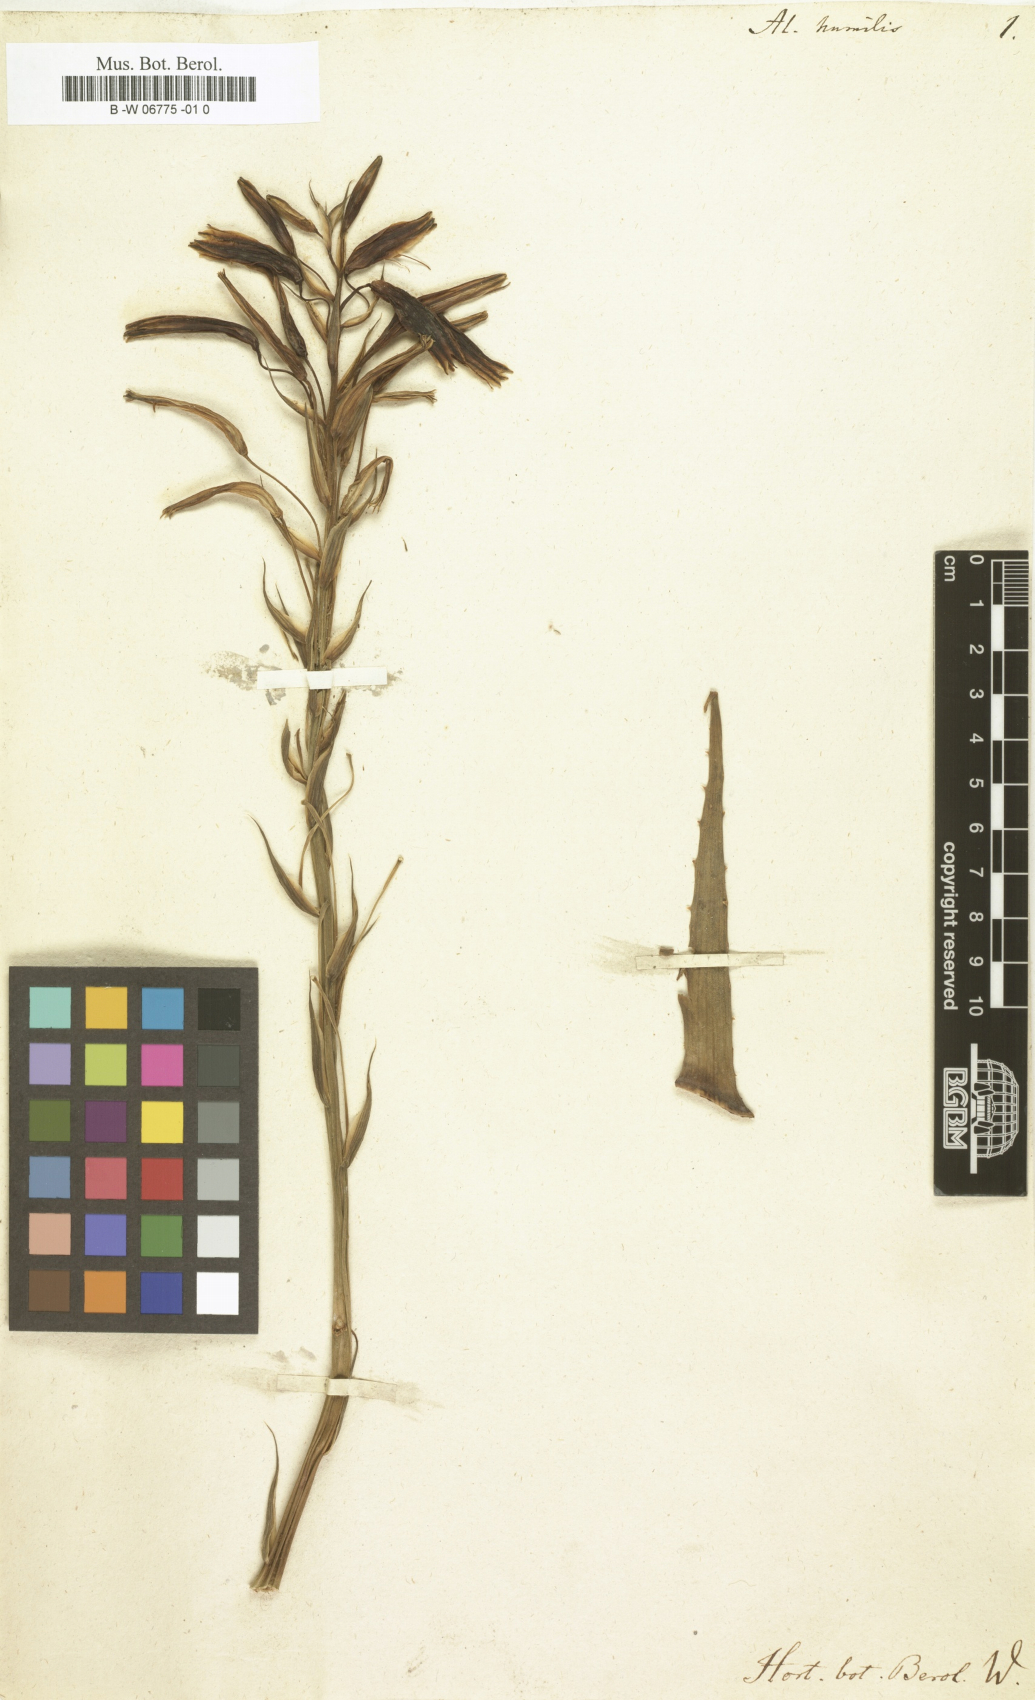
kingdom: Plantae
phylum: Tracheophyta
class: Liliopsida
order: Asparagales
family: Asphodelaceae
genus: Aloe
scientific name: Aloe humilis
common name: Dwarf hedgehog aloe
